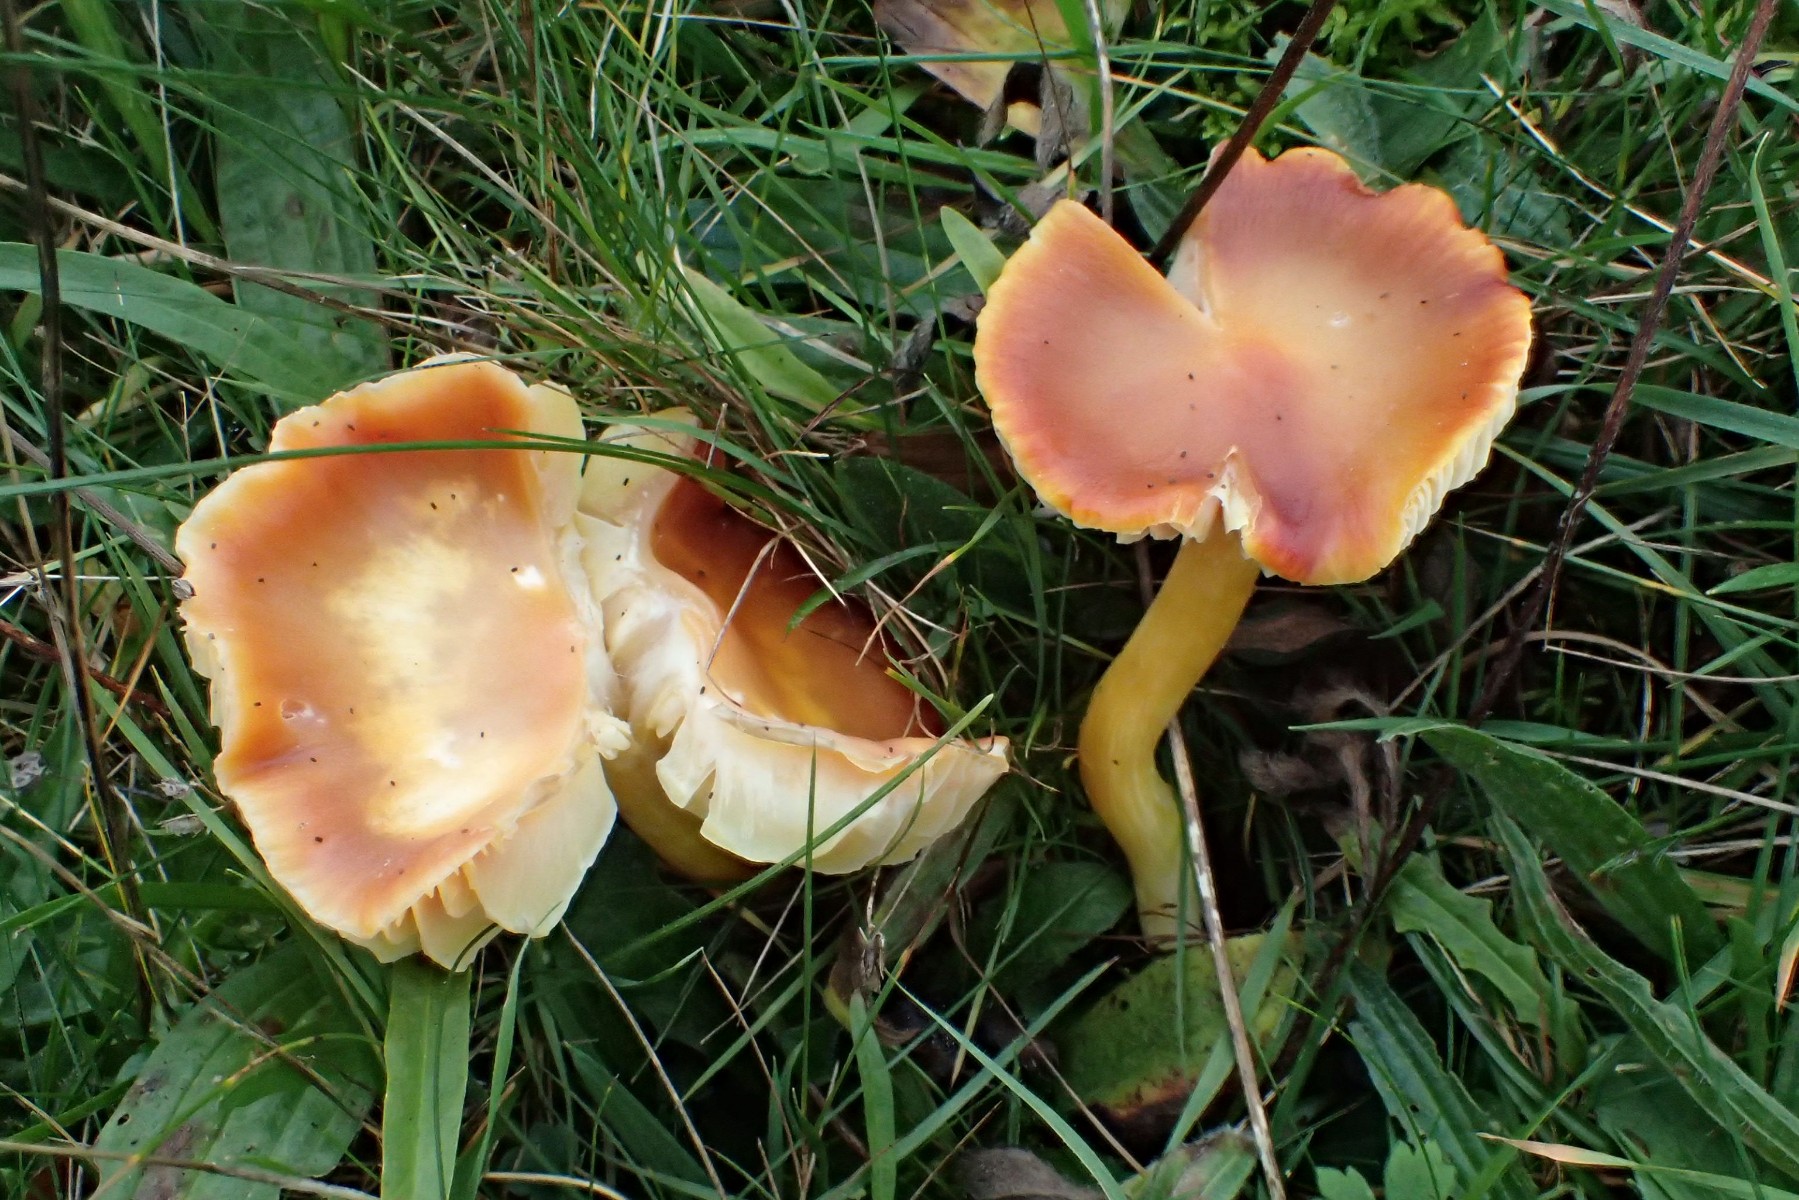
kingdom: Fungi
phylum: Basidiomycota
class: Agaricomycetes
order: Agaricales
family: Hygrophoraceae
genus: Hygrocybe
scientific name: Hygrocybe punicea
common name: skarlagen-vokshat
